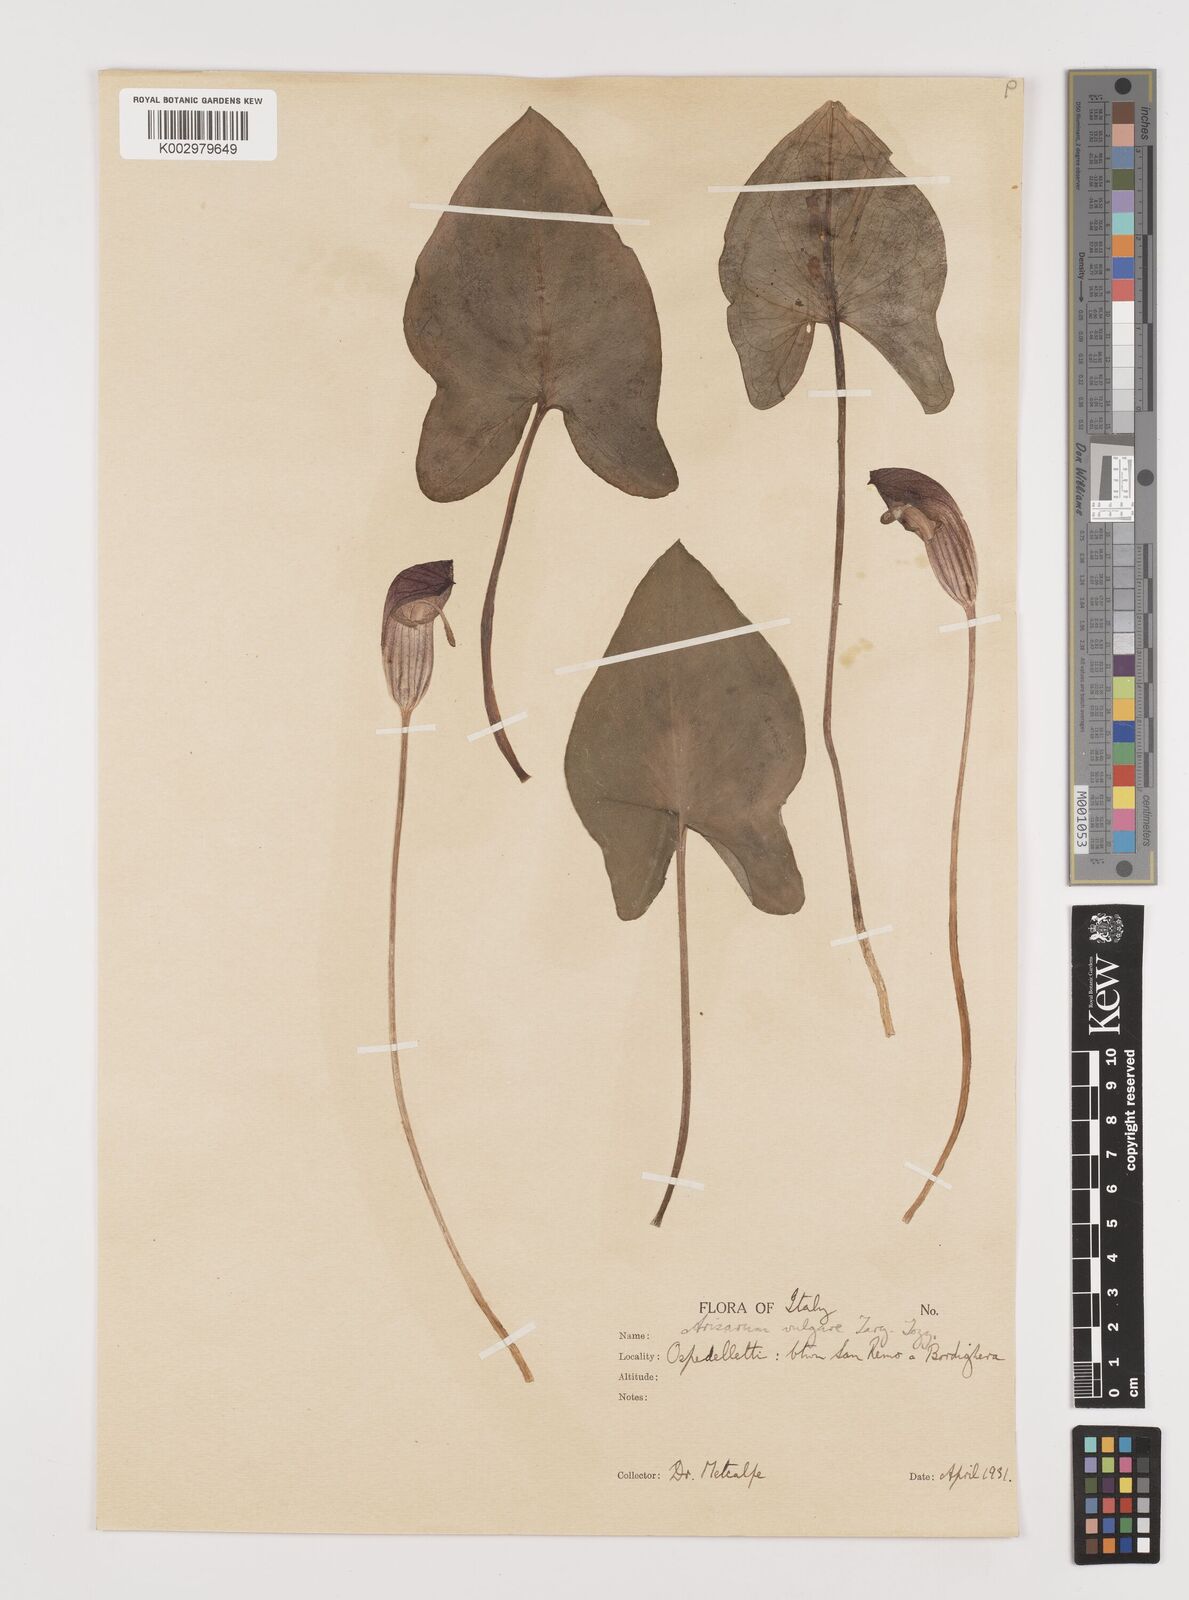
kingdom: Plantae
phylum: Tracheophyta
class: Liliopsida
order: Alismatales
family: Araceae
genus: Arisarum
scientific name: Arisarum vulgare
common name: Common arisarum
